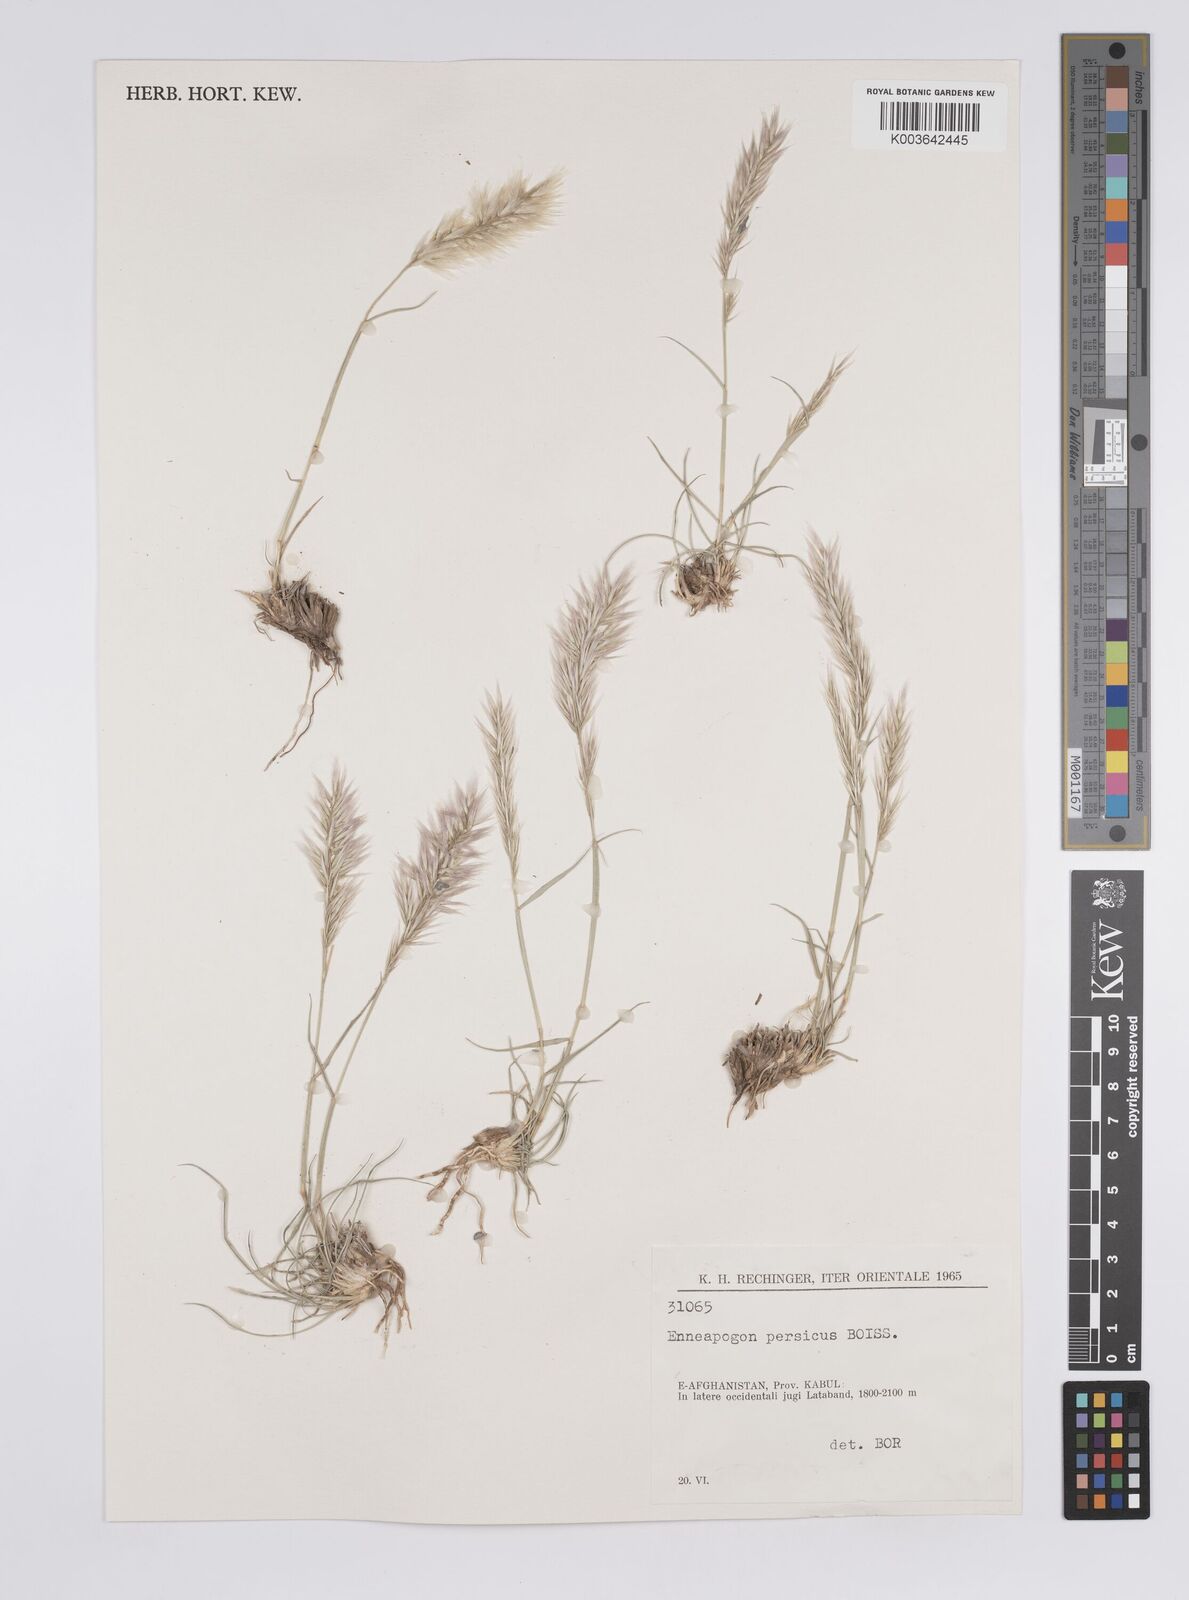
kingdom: Plantae
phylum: Tracheophyta
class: Liliopsida
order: Poales
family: Poaceae
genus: Enneapogon
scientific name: Enneapogon persicus
